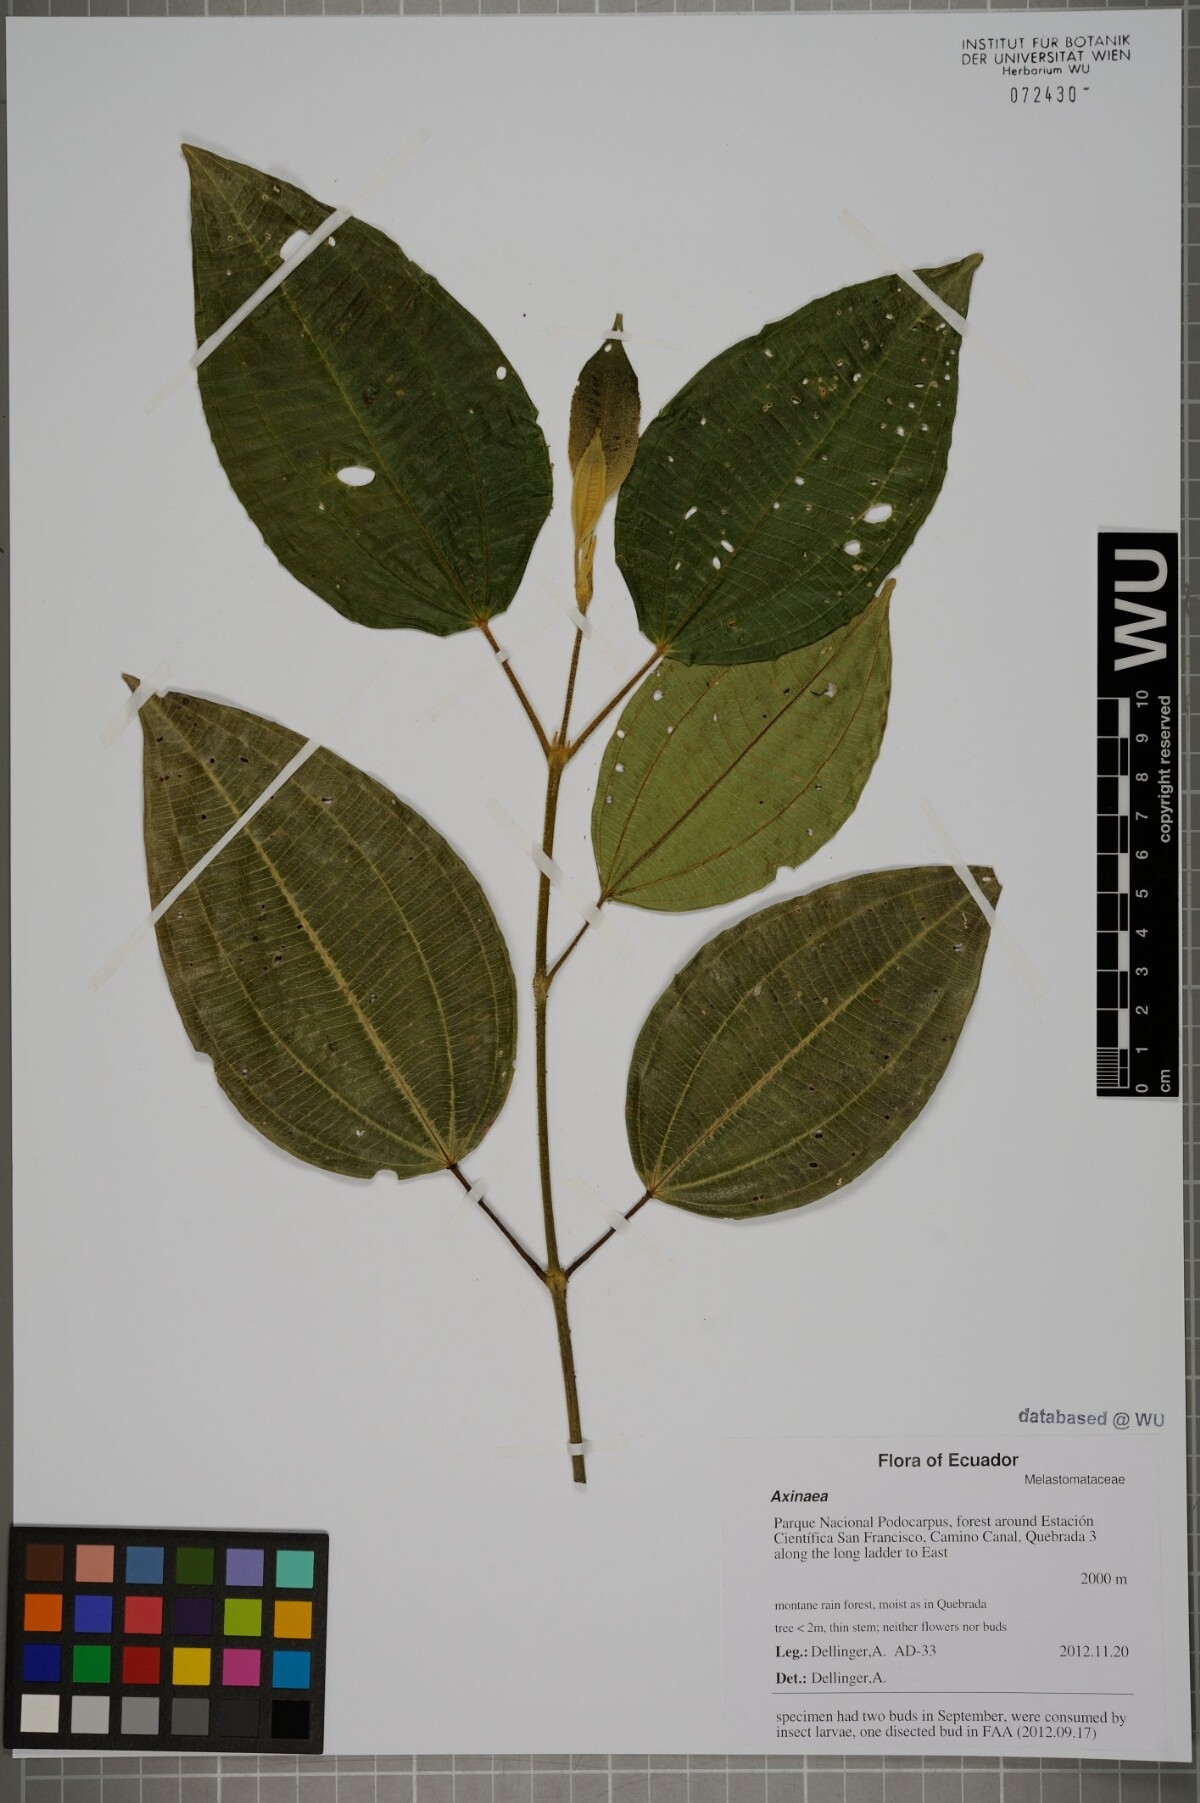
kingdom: Plantae
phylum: Tracheophyta
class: Magnoliopsida
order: Myrtales
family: Melastomataceae
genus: Axinaea
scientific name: Axinaea
